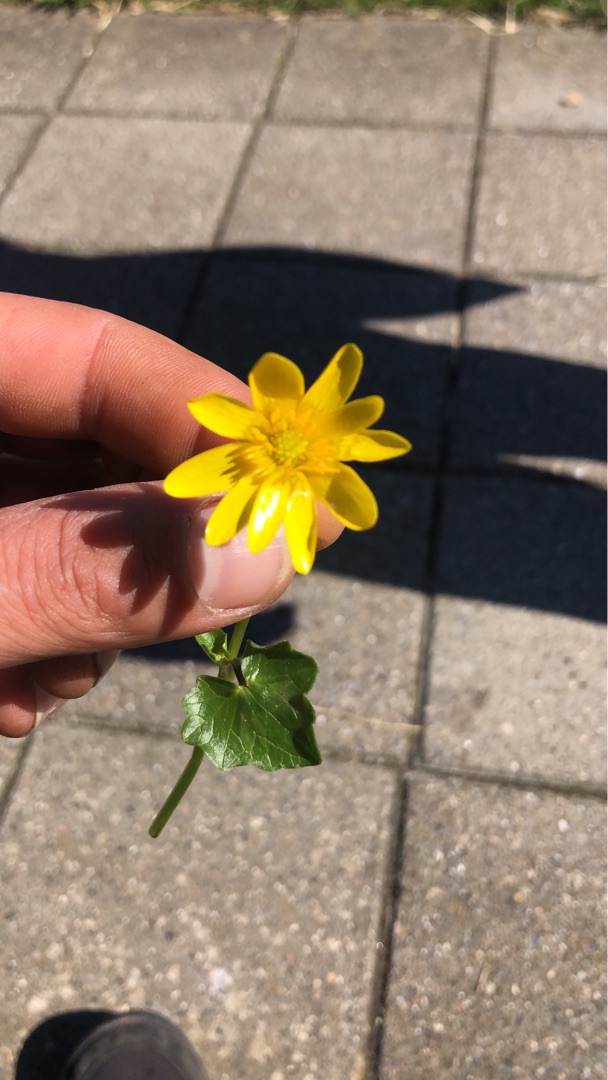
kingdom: Plantae
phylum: Tracheophyta
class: Magnoliopsida
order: Ranunculales
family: Ranunculaceae
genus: Ficaria
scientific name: Ficaria verna
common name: Vorterod
